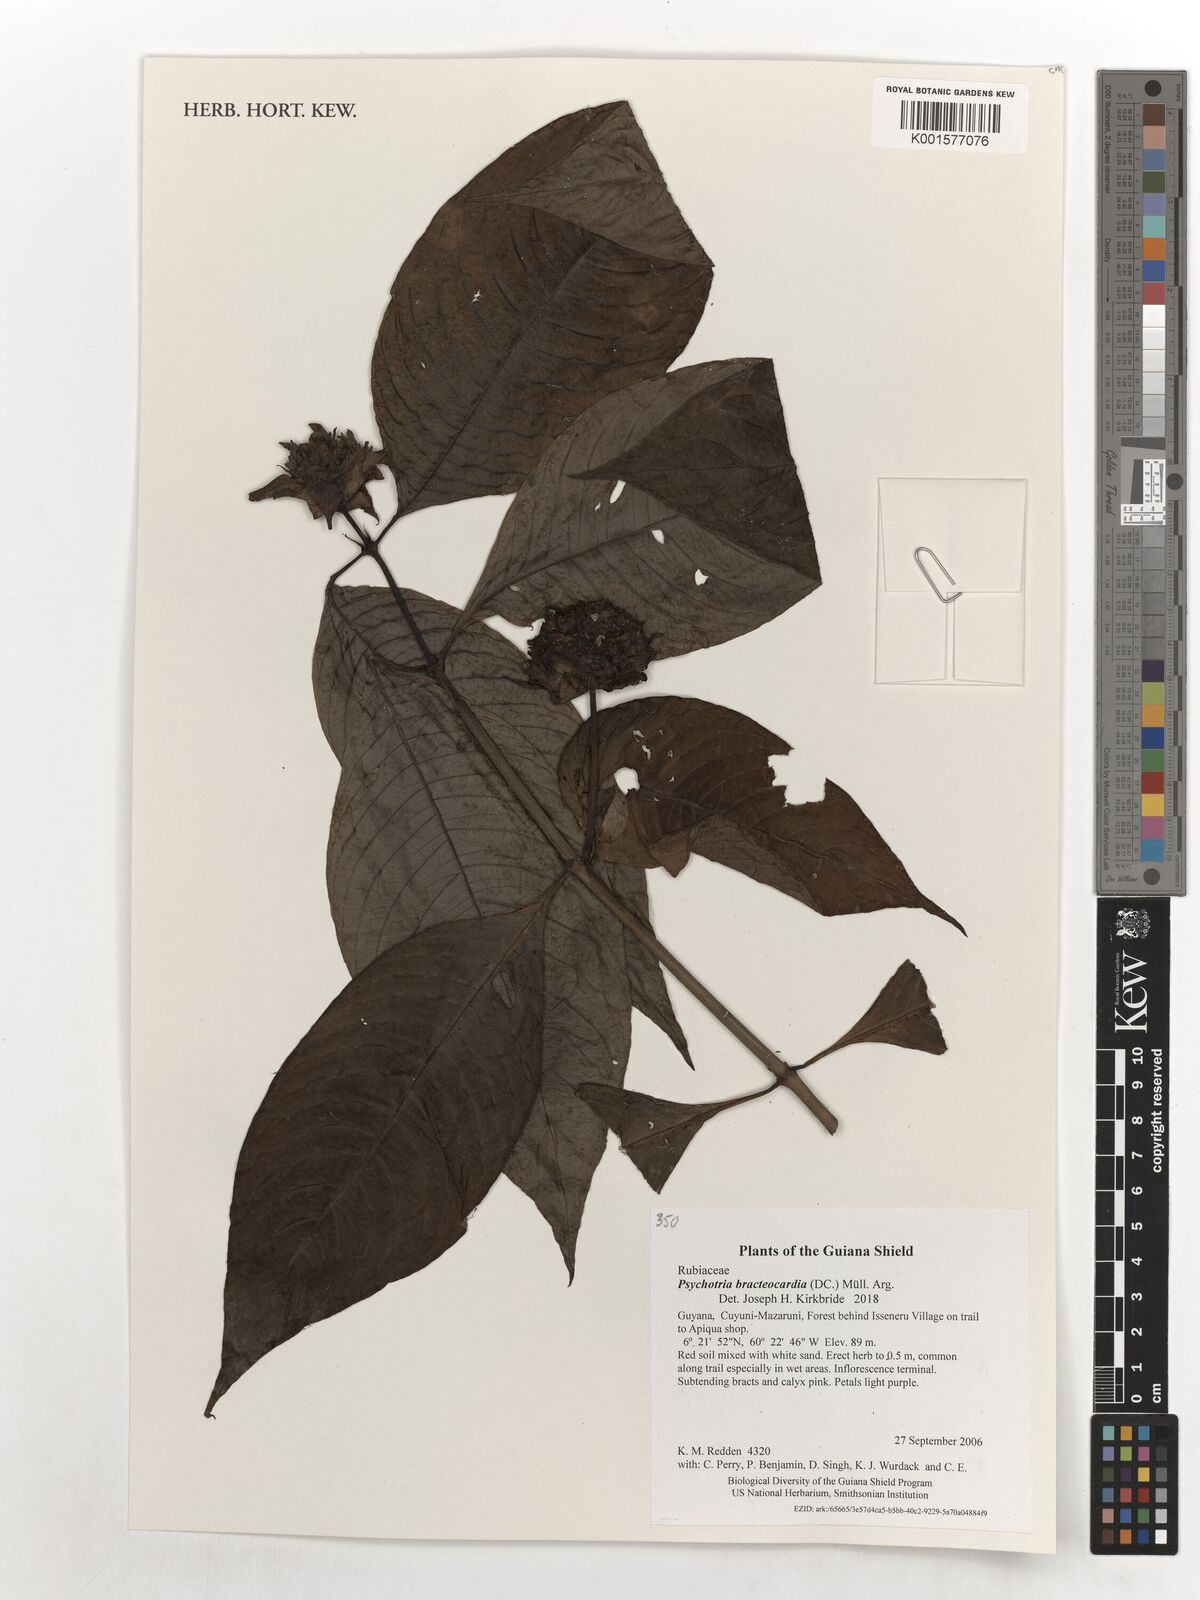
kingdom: Plantae
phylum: Tracheophyta
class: Magnoliopsida
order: Gentianales
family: Rubiaceae
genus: Palicourea
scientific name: Palicourea bracteocardia
